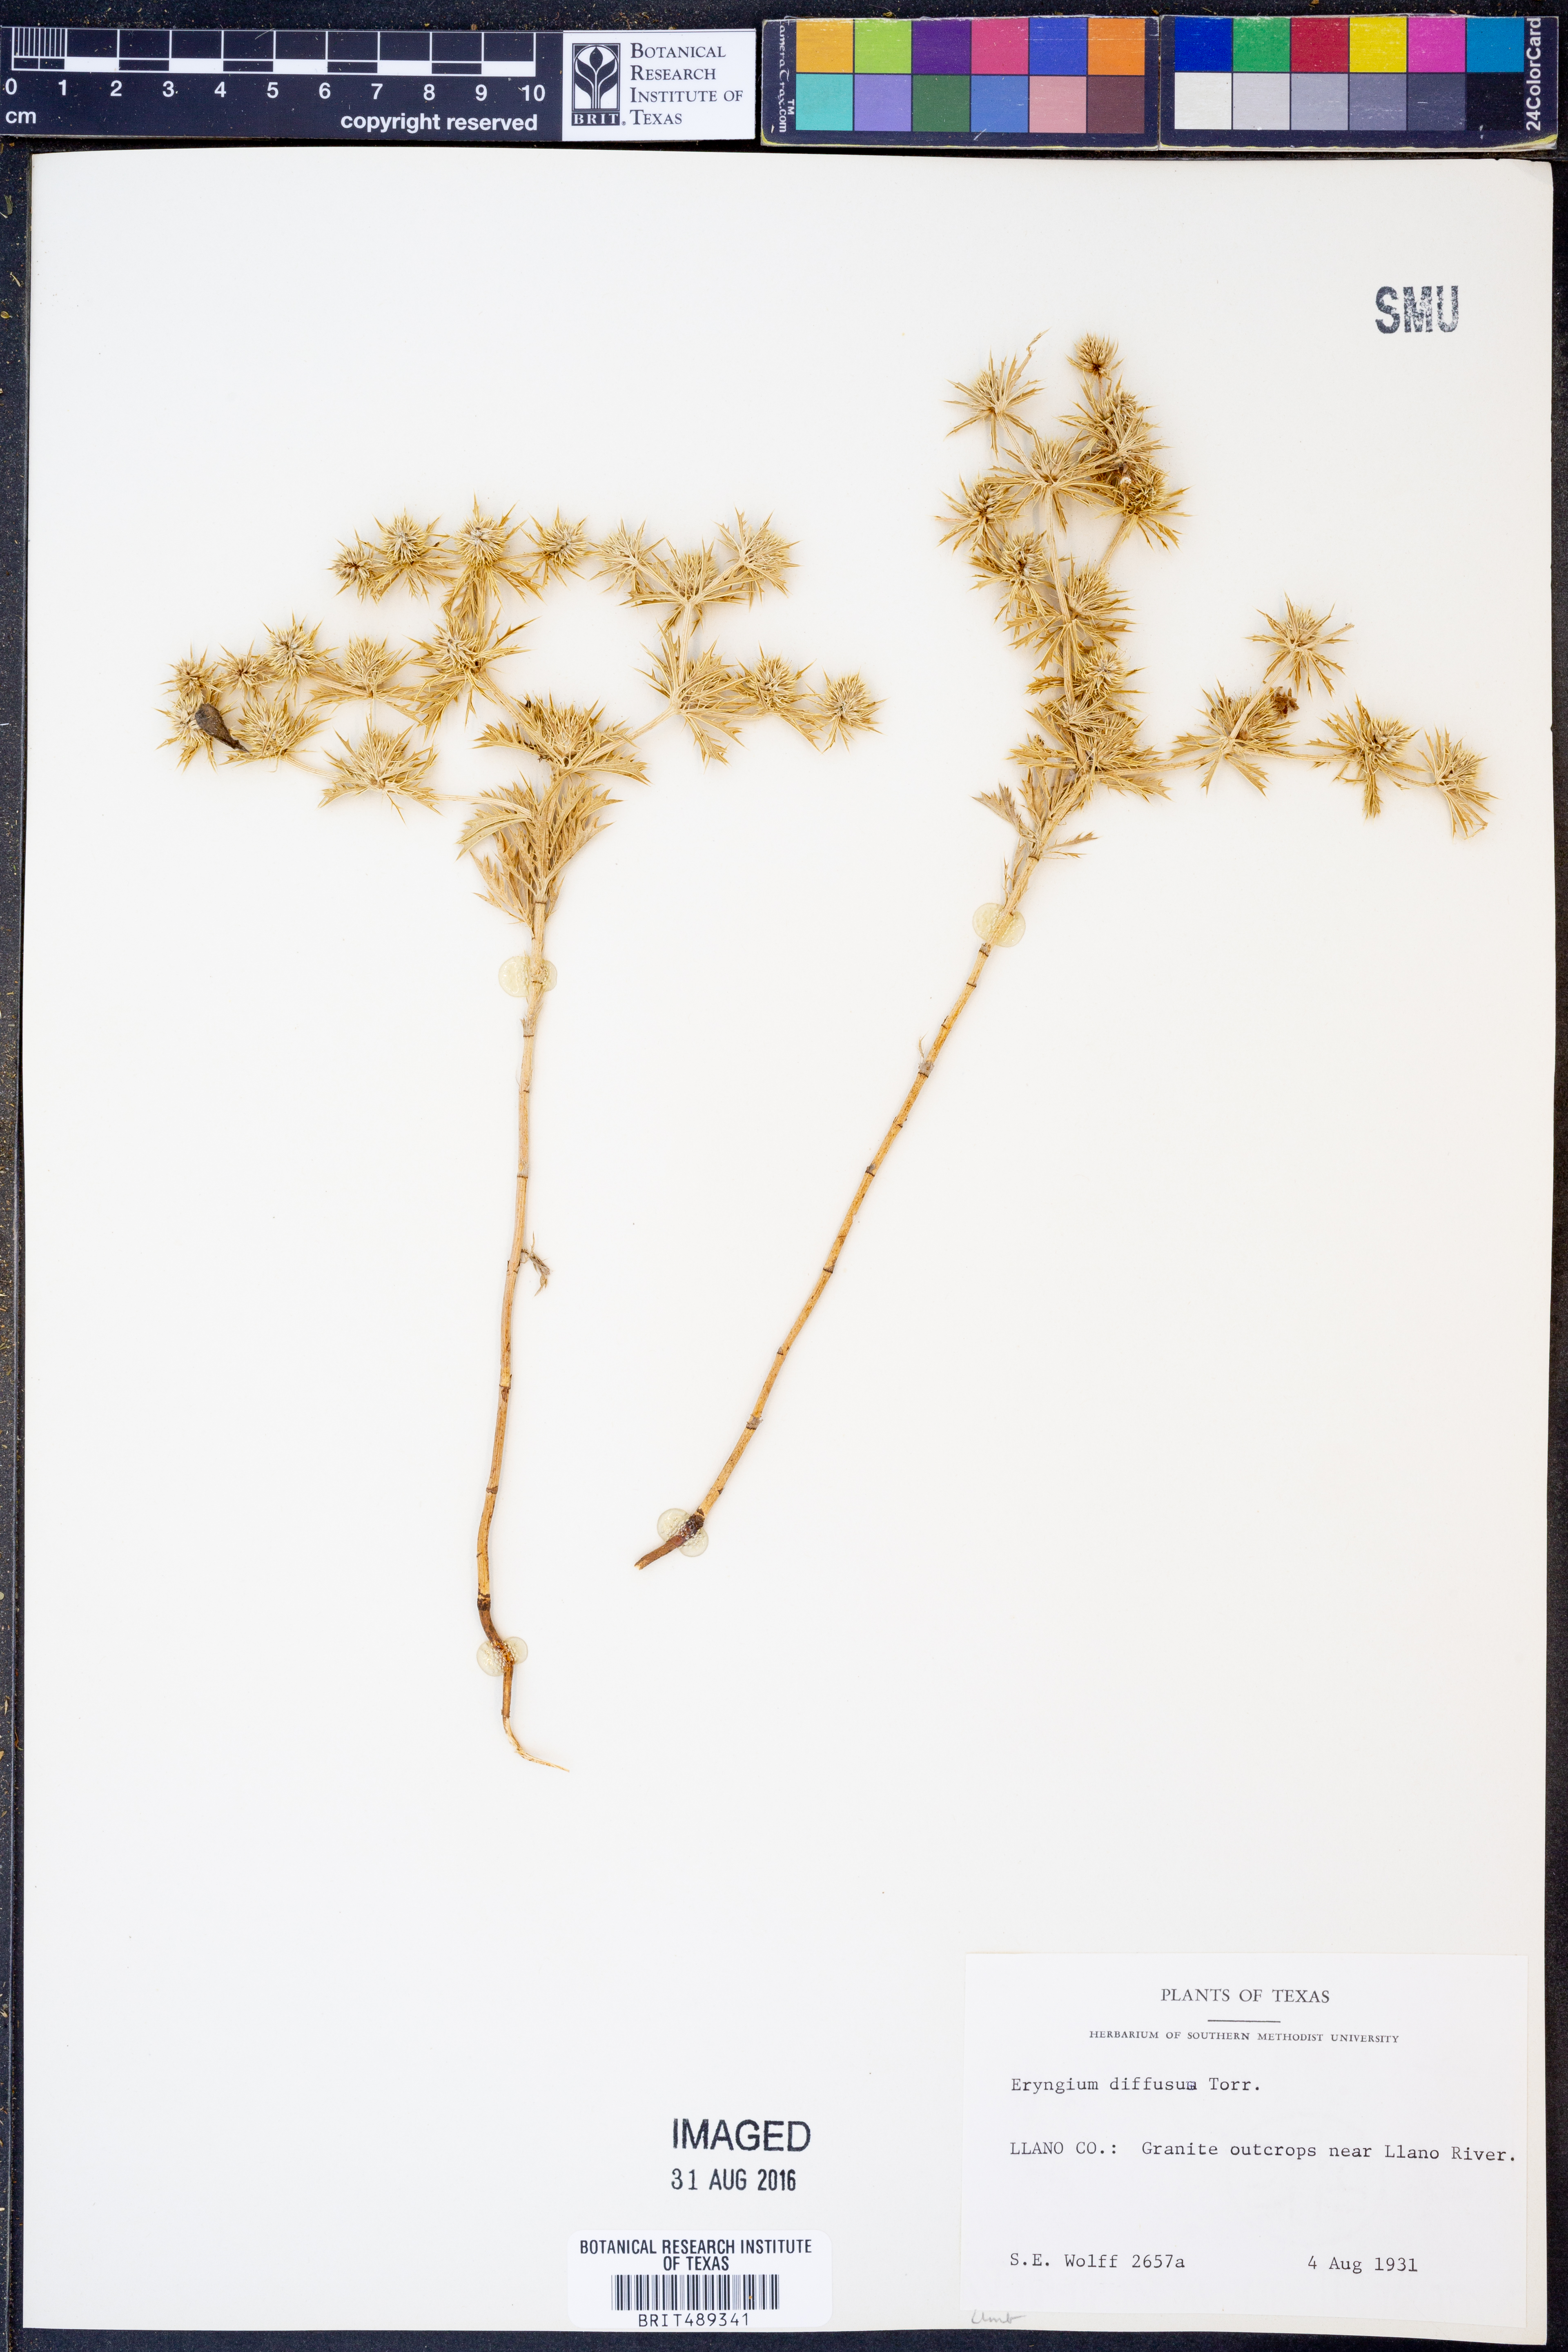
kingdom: Plantae
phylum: Tracheophyta
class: Magnoliopsida
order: Apiales
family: Apiaceae
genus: Eryngium
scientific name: Eryngium diffusum
